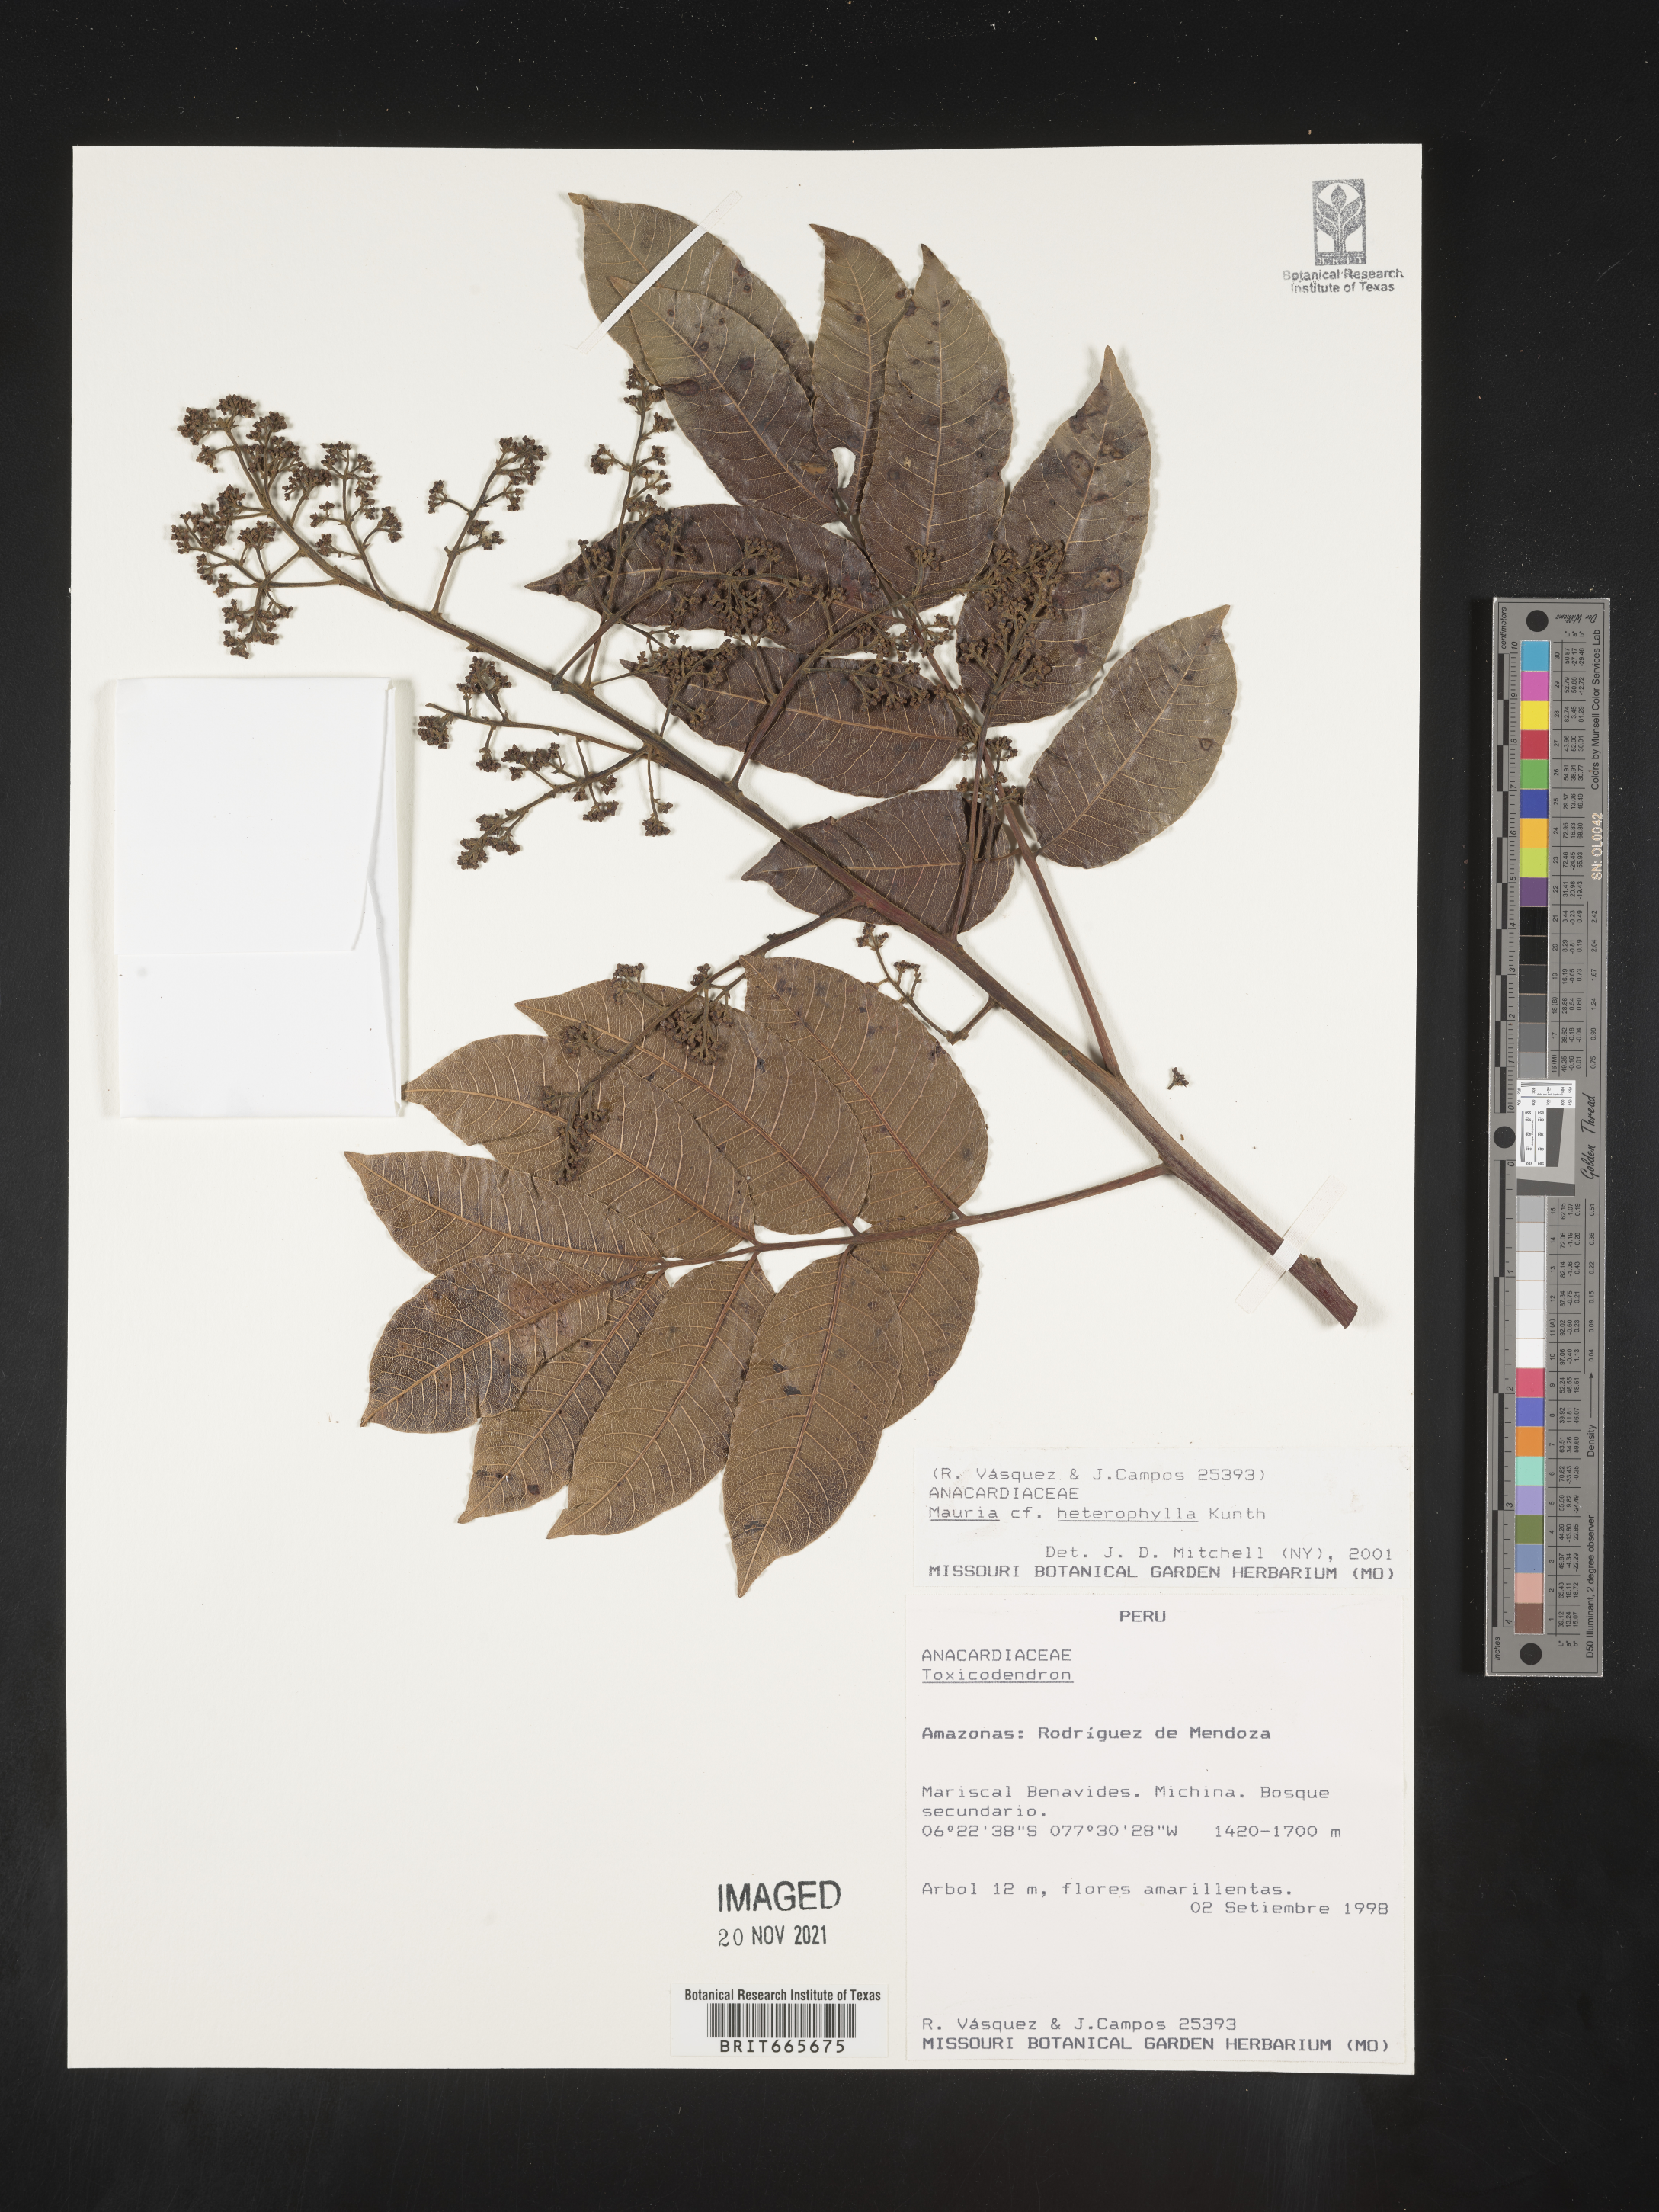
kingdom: Plantae
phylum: Tracheophyta
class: Magnoliopsida
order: Sapindales
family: Anacardiaceae
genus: Mauria
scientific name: Mauria
